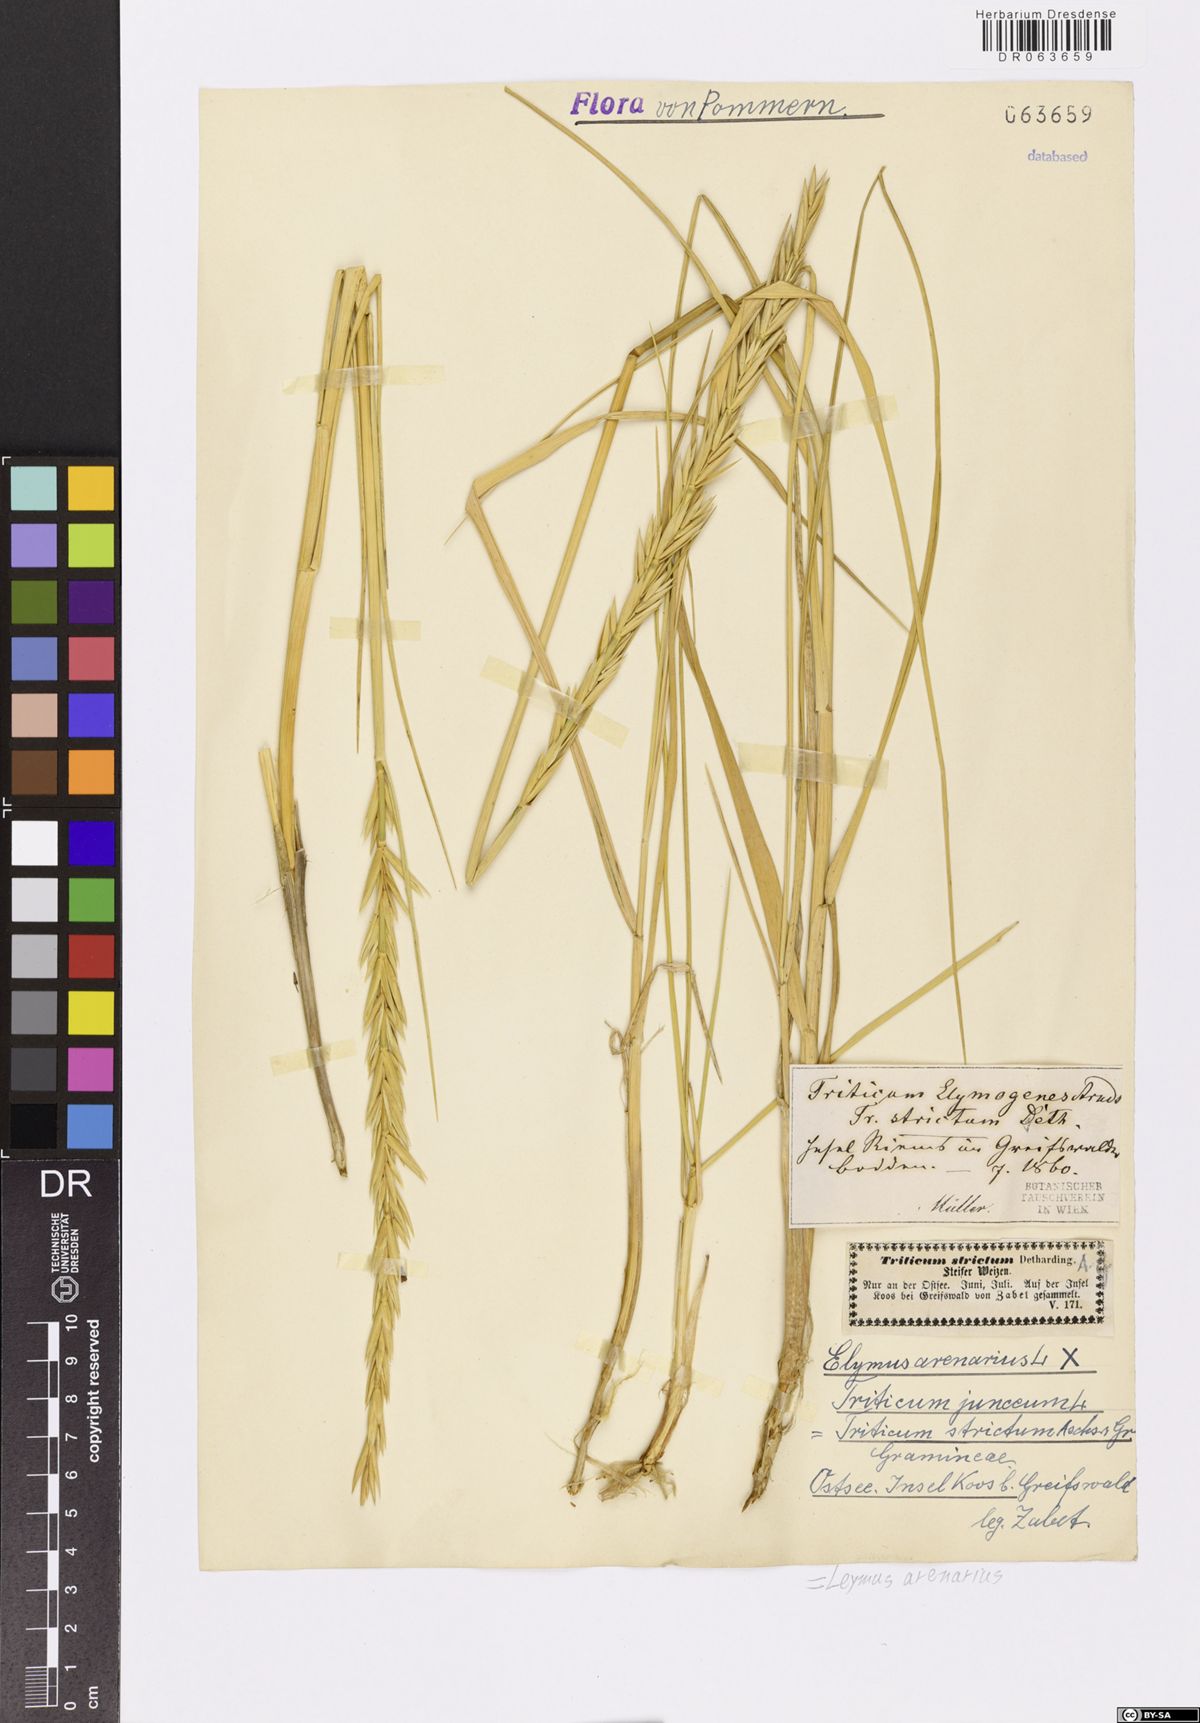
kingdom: Plantae
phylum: Tracheophyta
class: Liliopsida
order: Poales
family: Poaceae
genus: Leymus
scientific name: Leymus arenarius
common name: Lyme-grass
